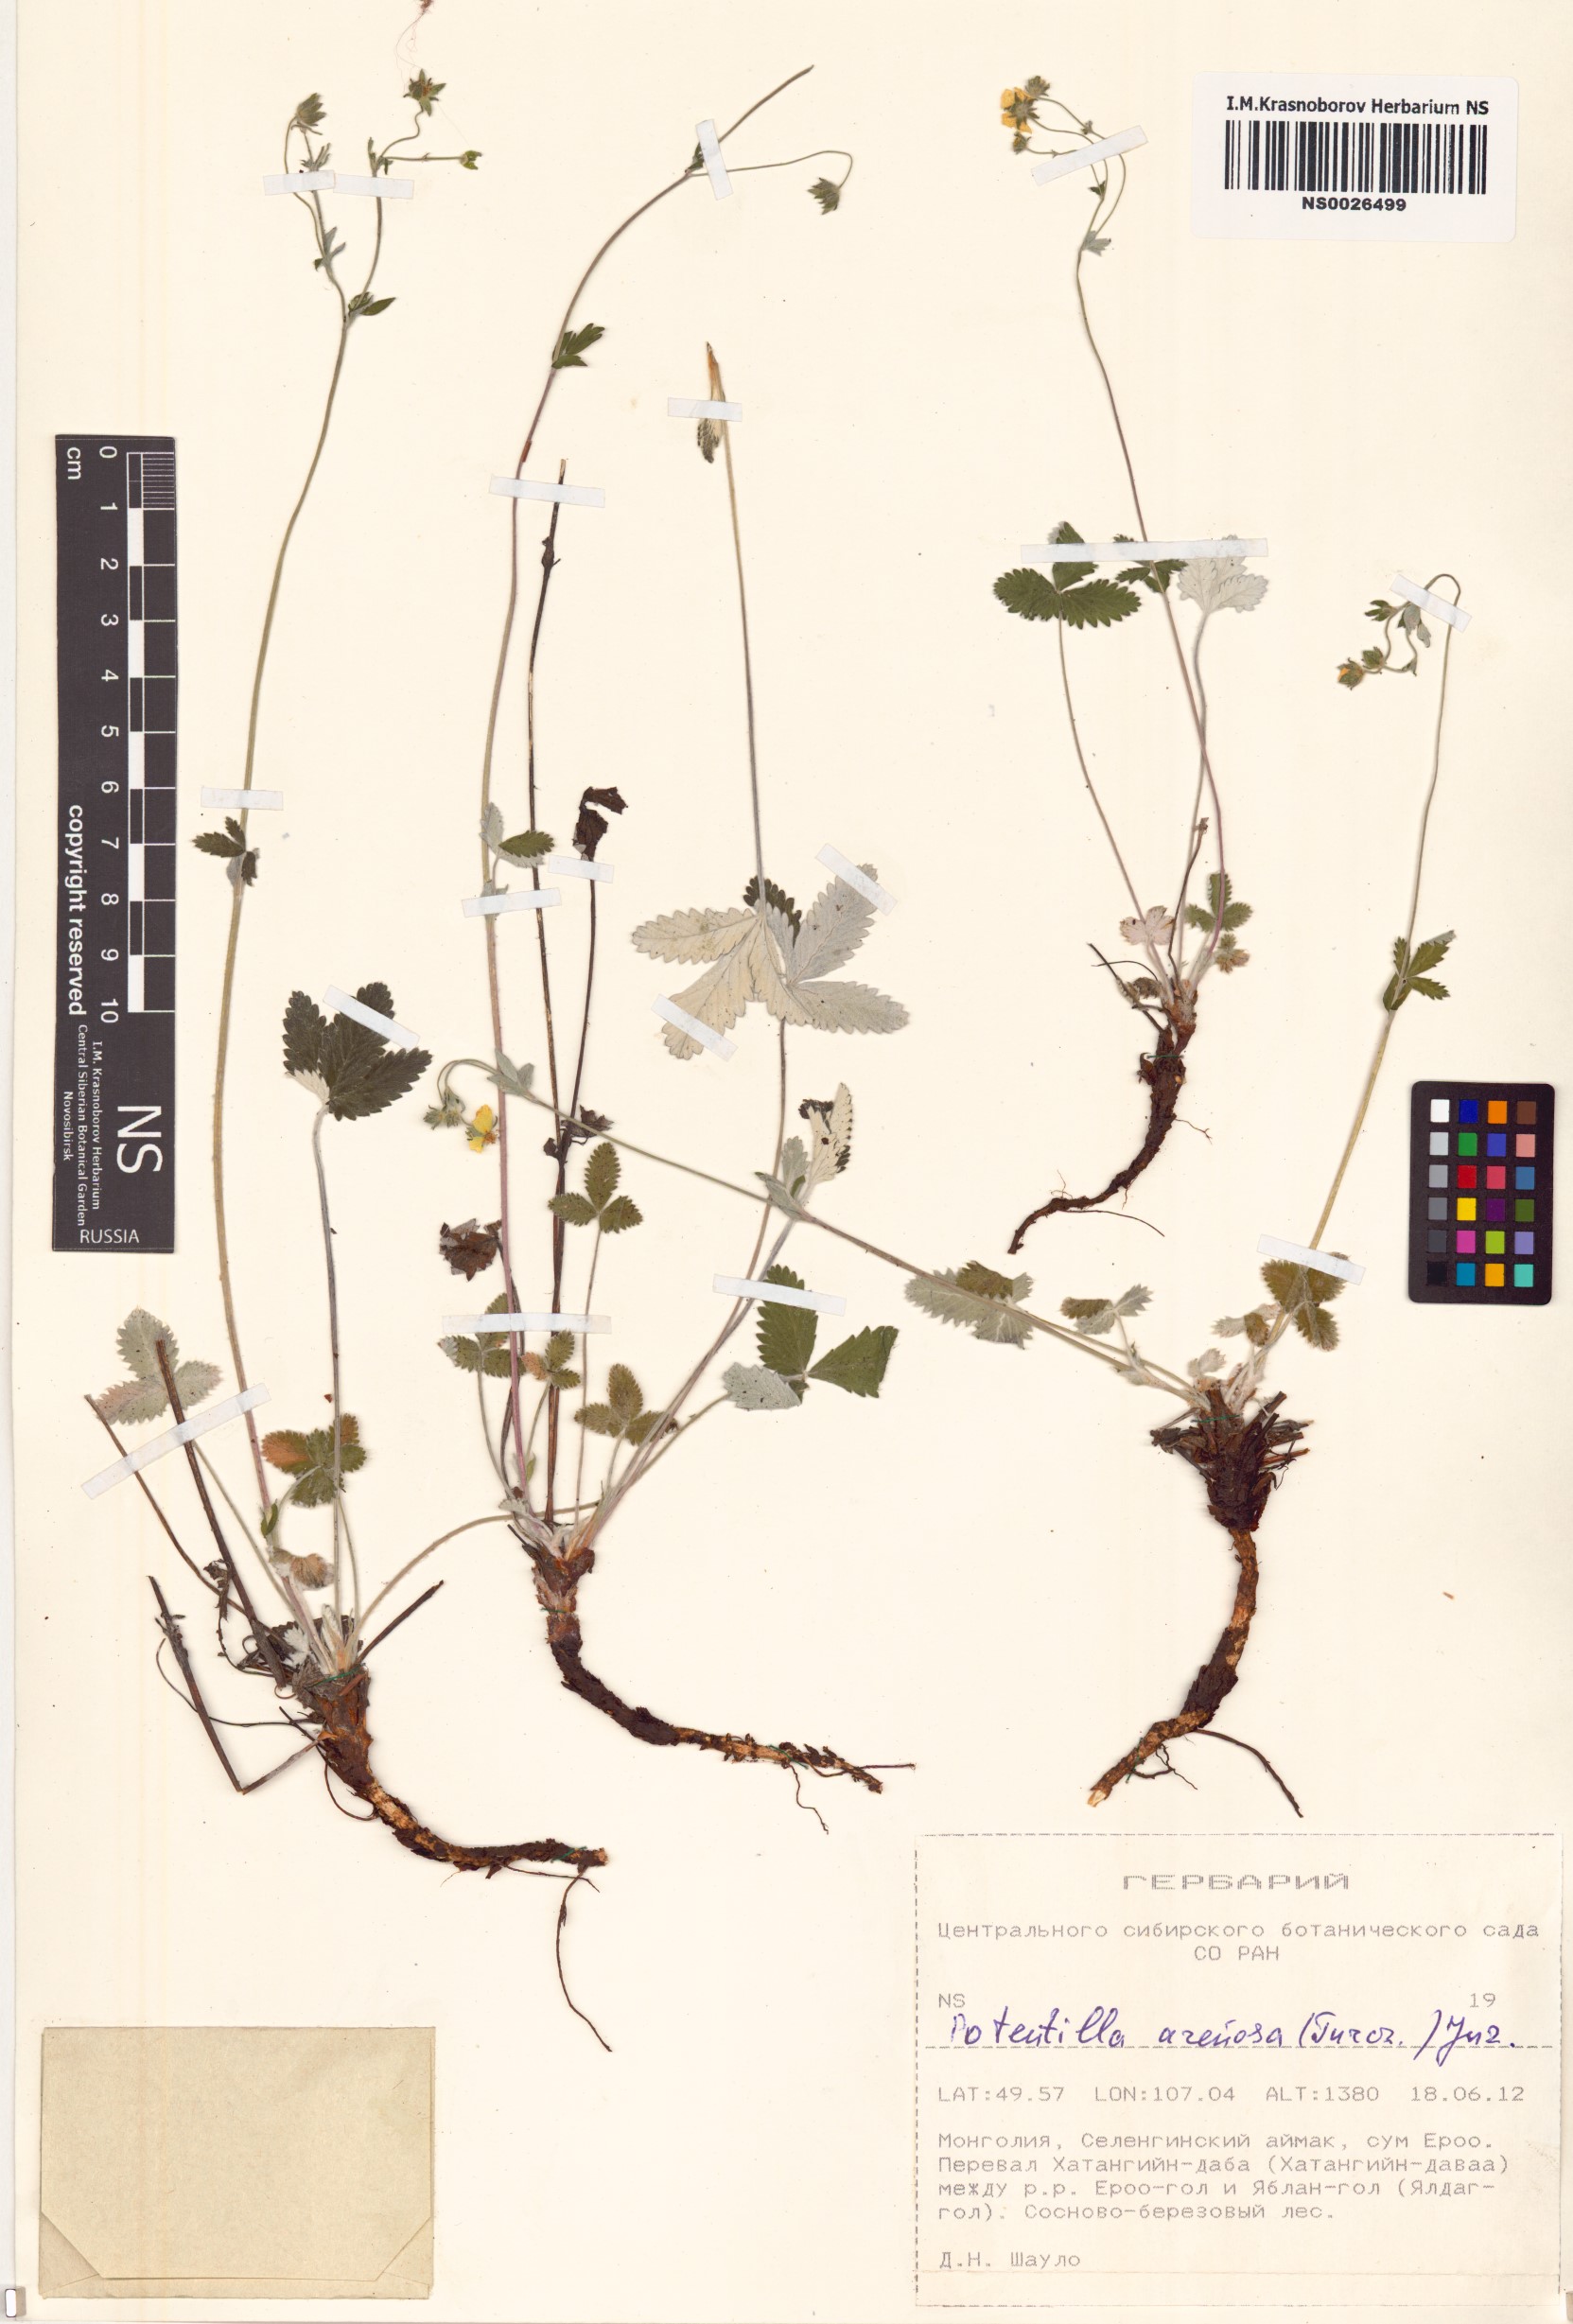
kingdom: Plantae
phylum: Tracheophyta
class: Magnoliopsida
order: Rosales
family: Rosaceae
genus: Potentilla
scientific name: Potentilla arenosa
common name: Bluff cinquefoil
